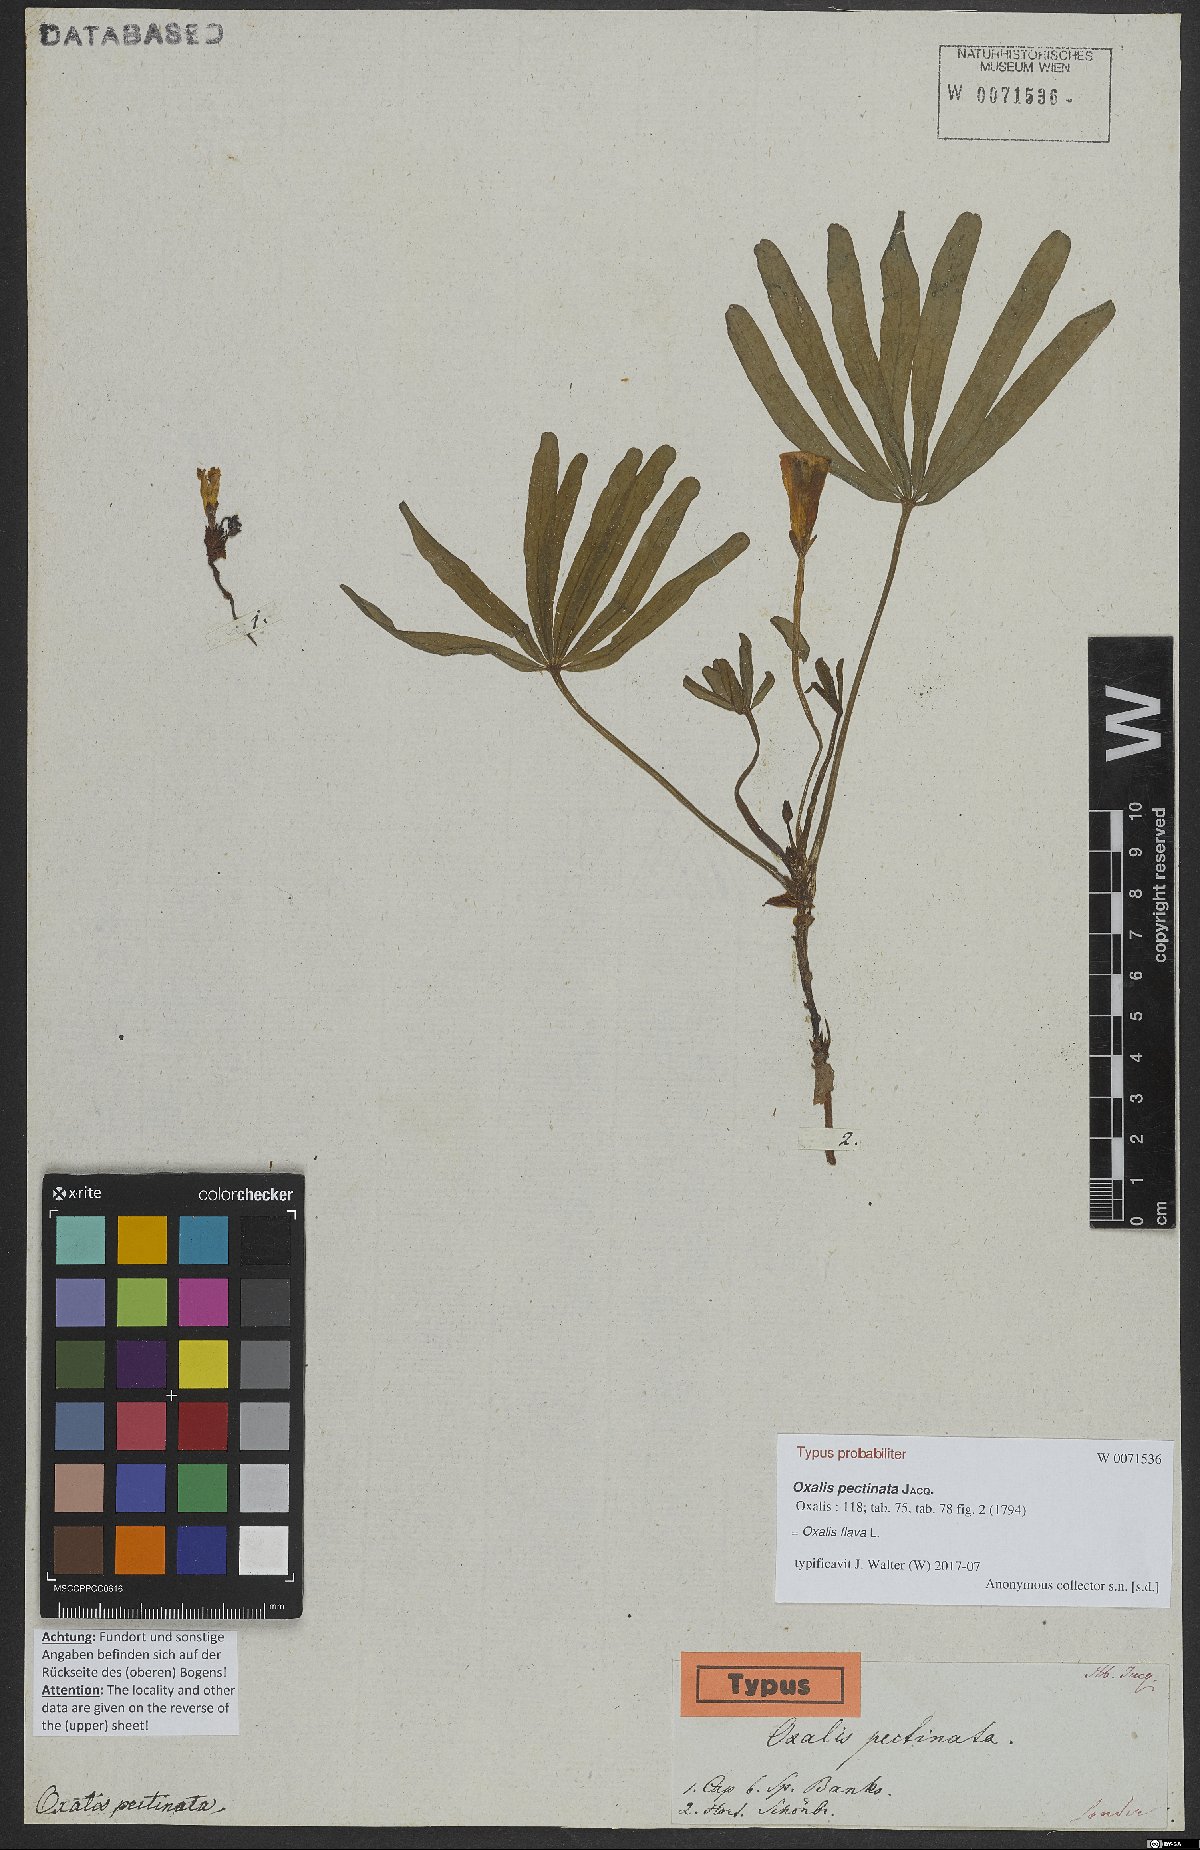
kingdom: Plantae
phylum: Tracheophyta
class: Magnoliopsida
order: Oxalidales
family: Oxalidaceae
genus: Oxalis
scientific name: Oxalis flava
